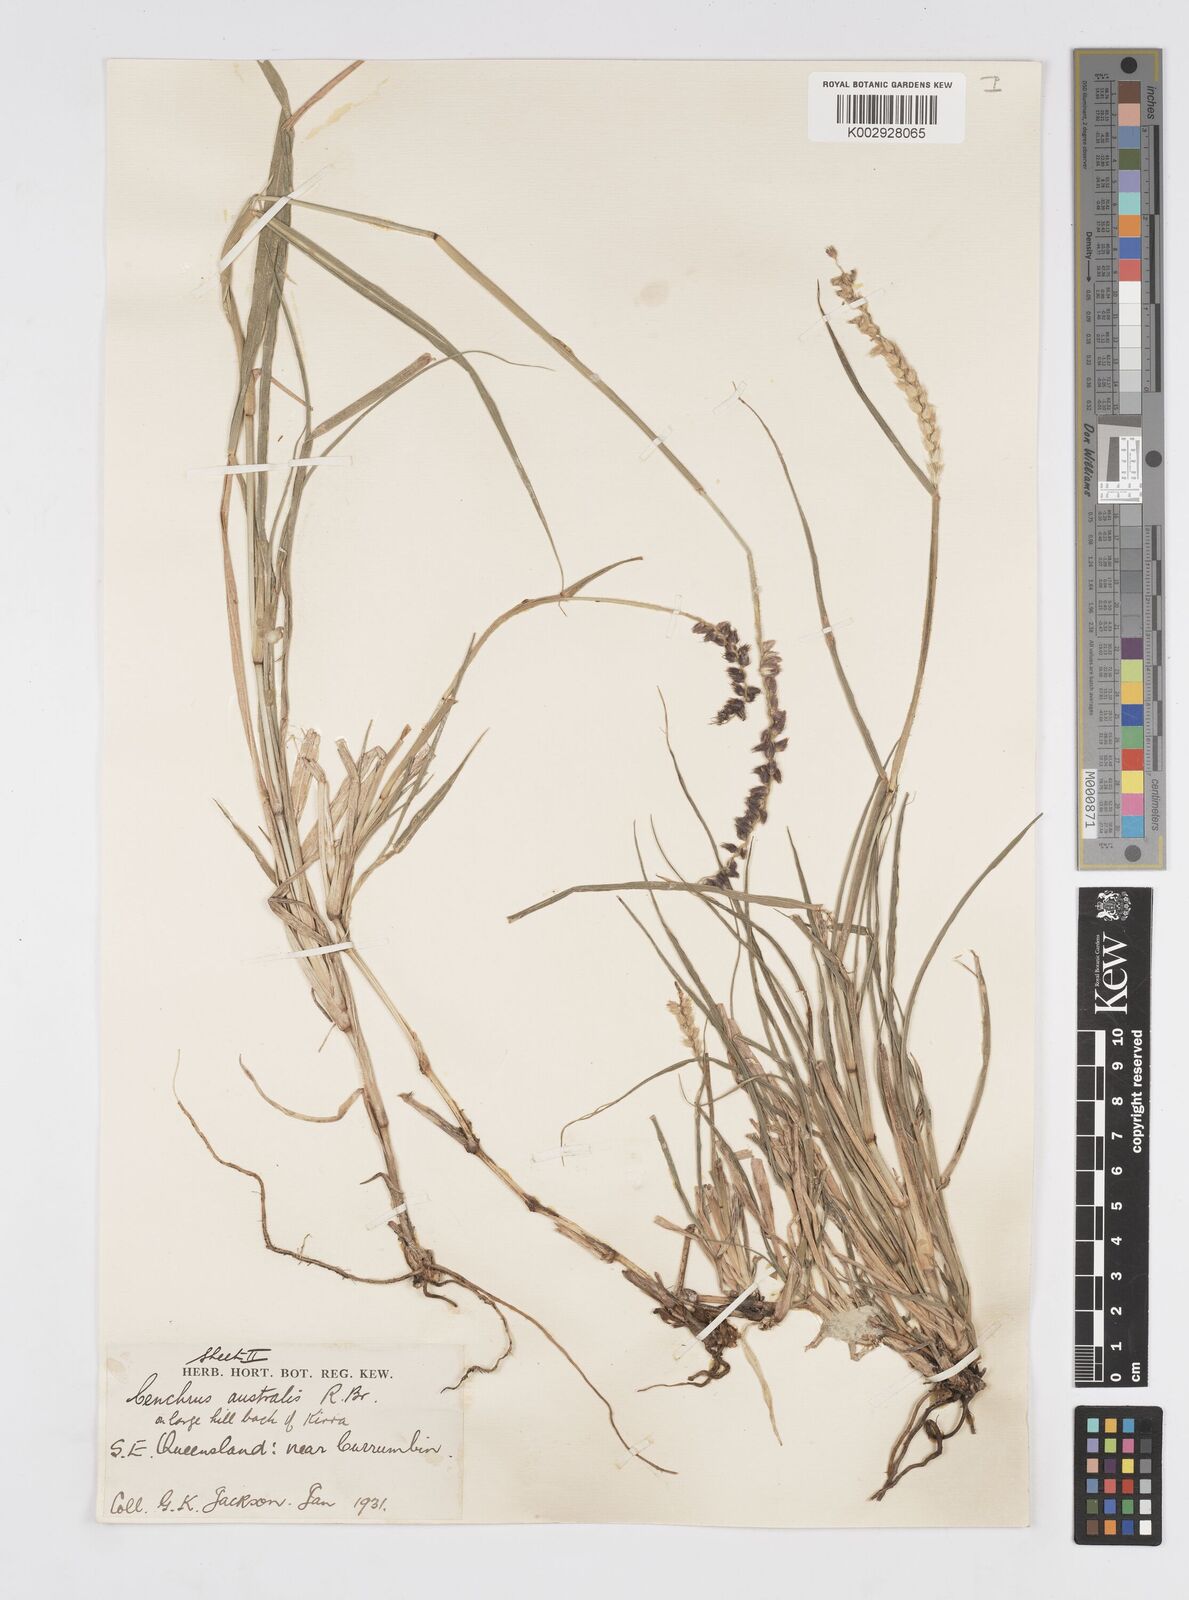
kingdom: Plantae
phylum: Tracheophyta
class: Liliopsida
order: Poales
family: Poaceae
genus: Cenchrus
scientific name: Cenchrus caliculatus
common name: Large bur grass
